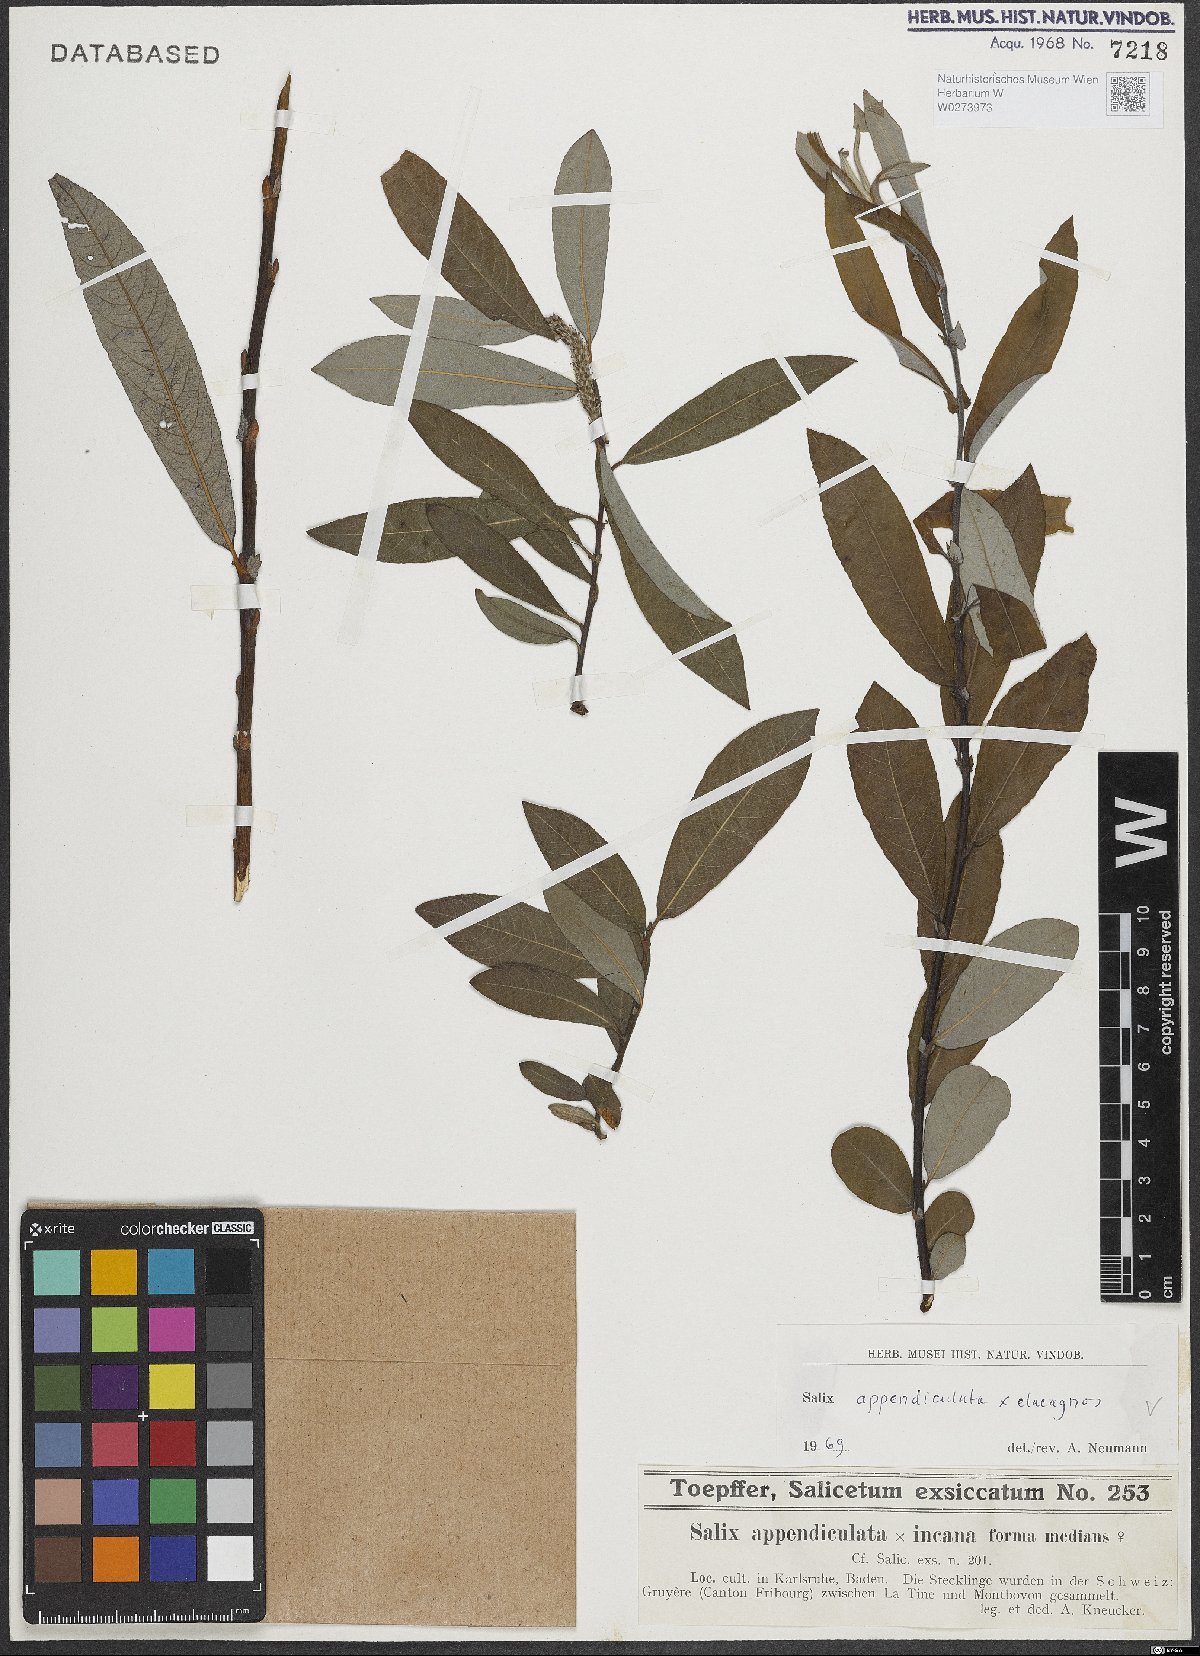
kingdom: Plantae
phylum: Tracheophyta
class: Magnoliopsida
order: Malpighiales
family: Salicaceae
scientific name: Salicaceae
